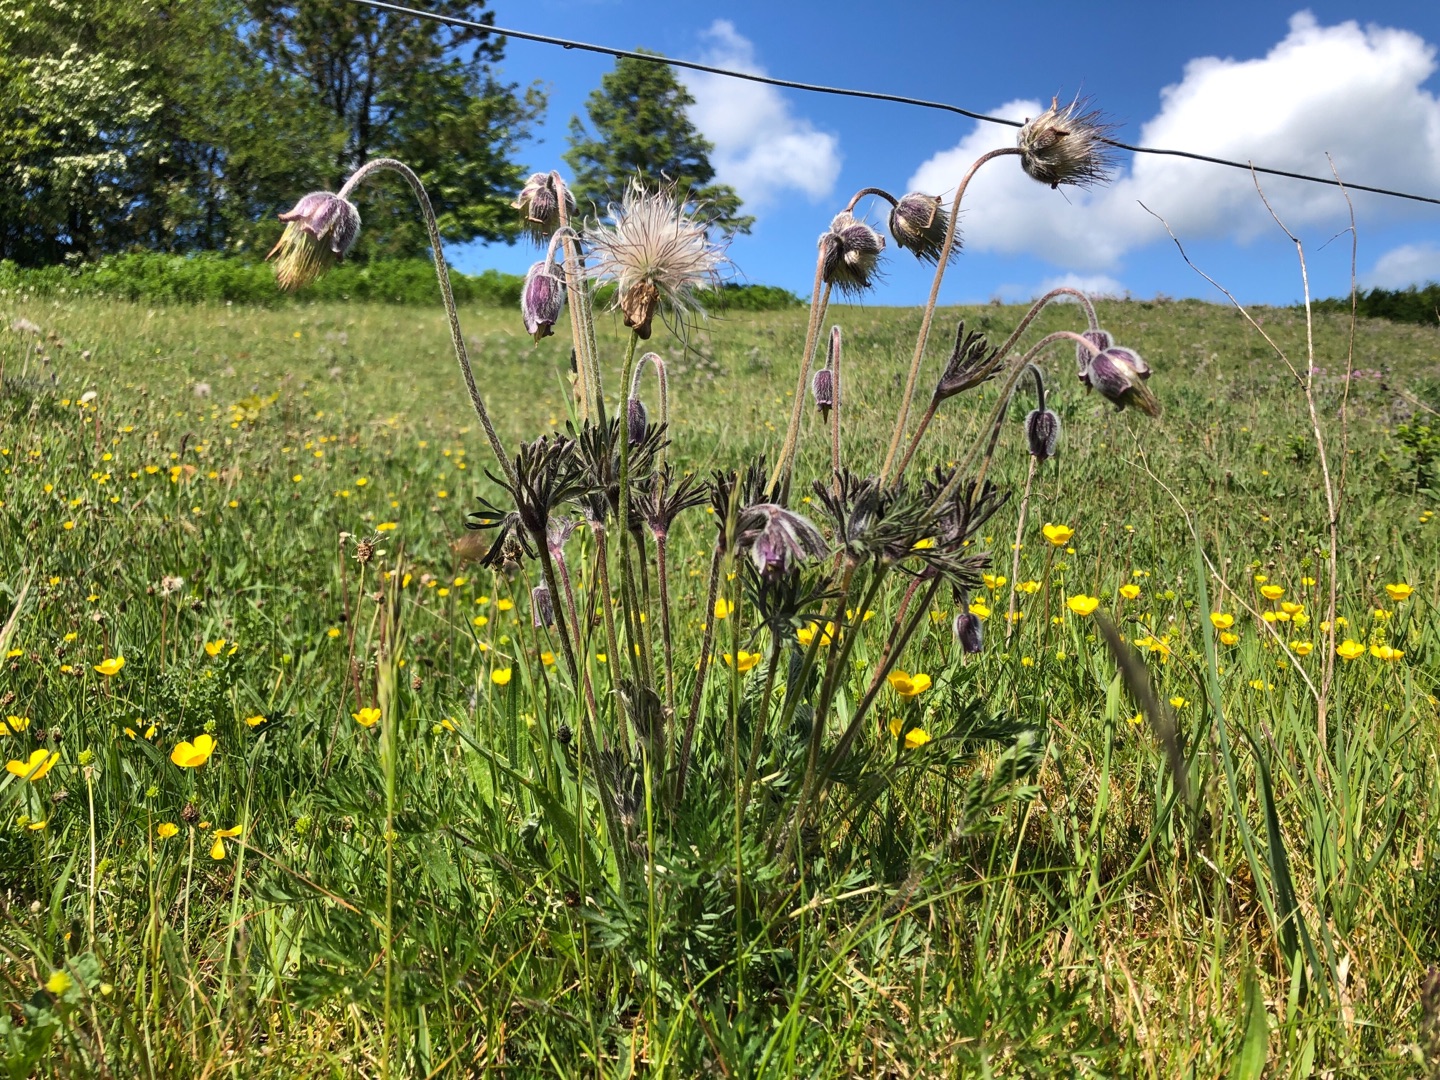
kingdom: Plantae
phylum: Tracheophyta
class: Magnoliopsida
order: Ranunculales
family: Ranunculaceae
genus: Pulsatilla
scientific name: Pulsatilla pratensis
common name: Nikkende kobjælde
